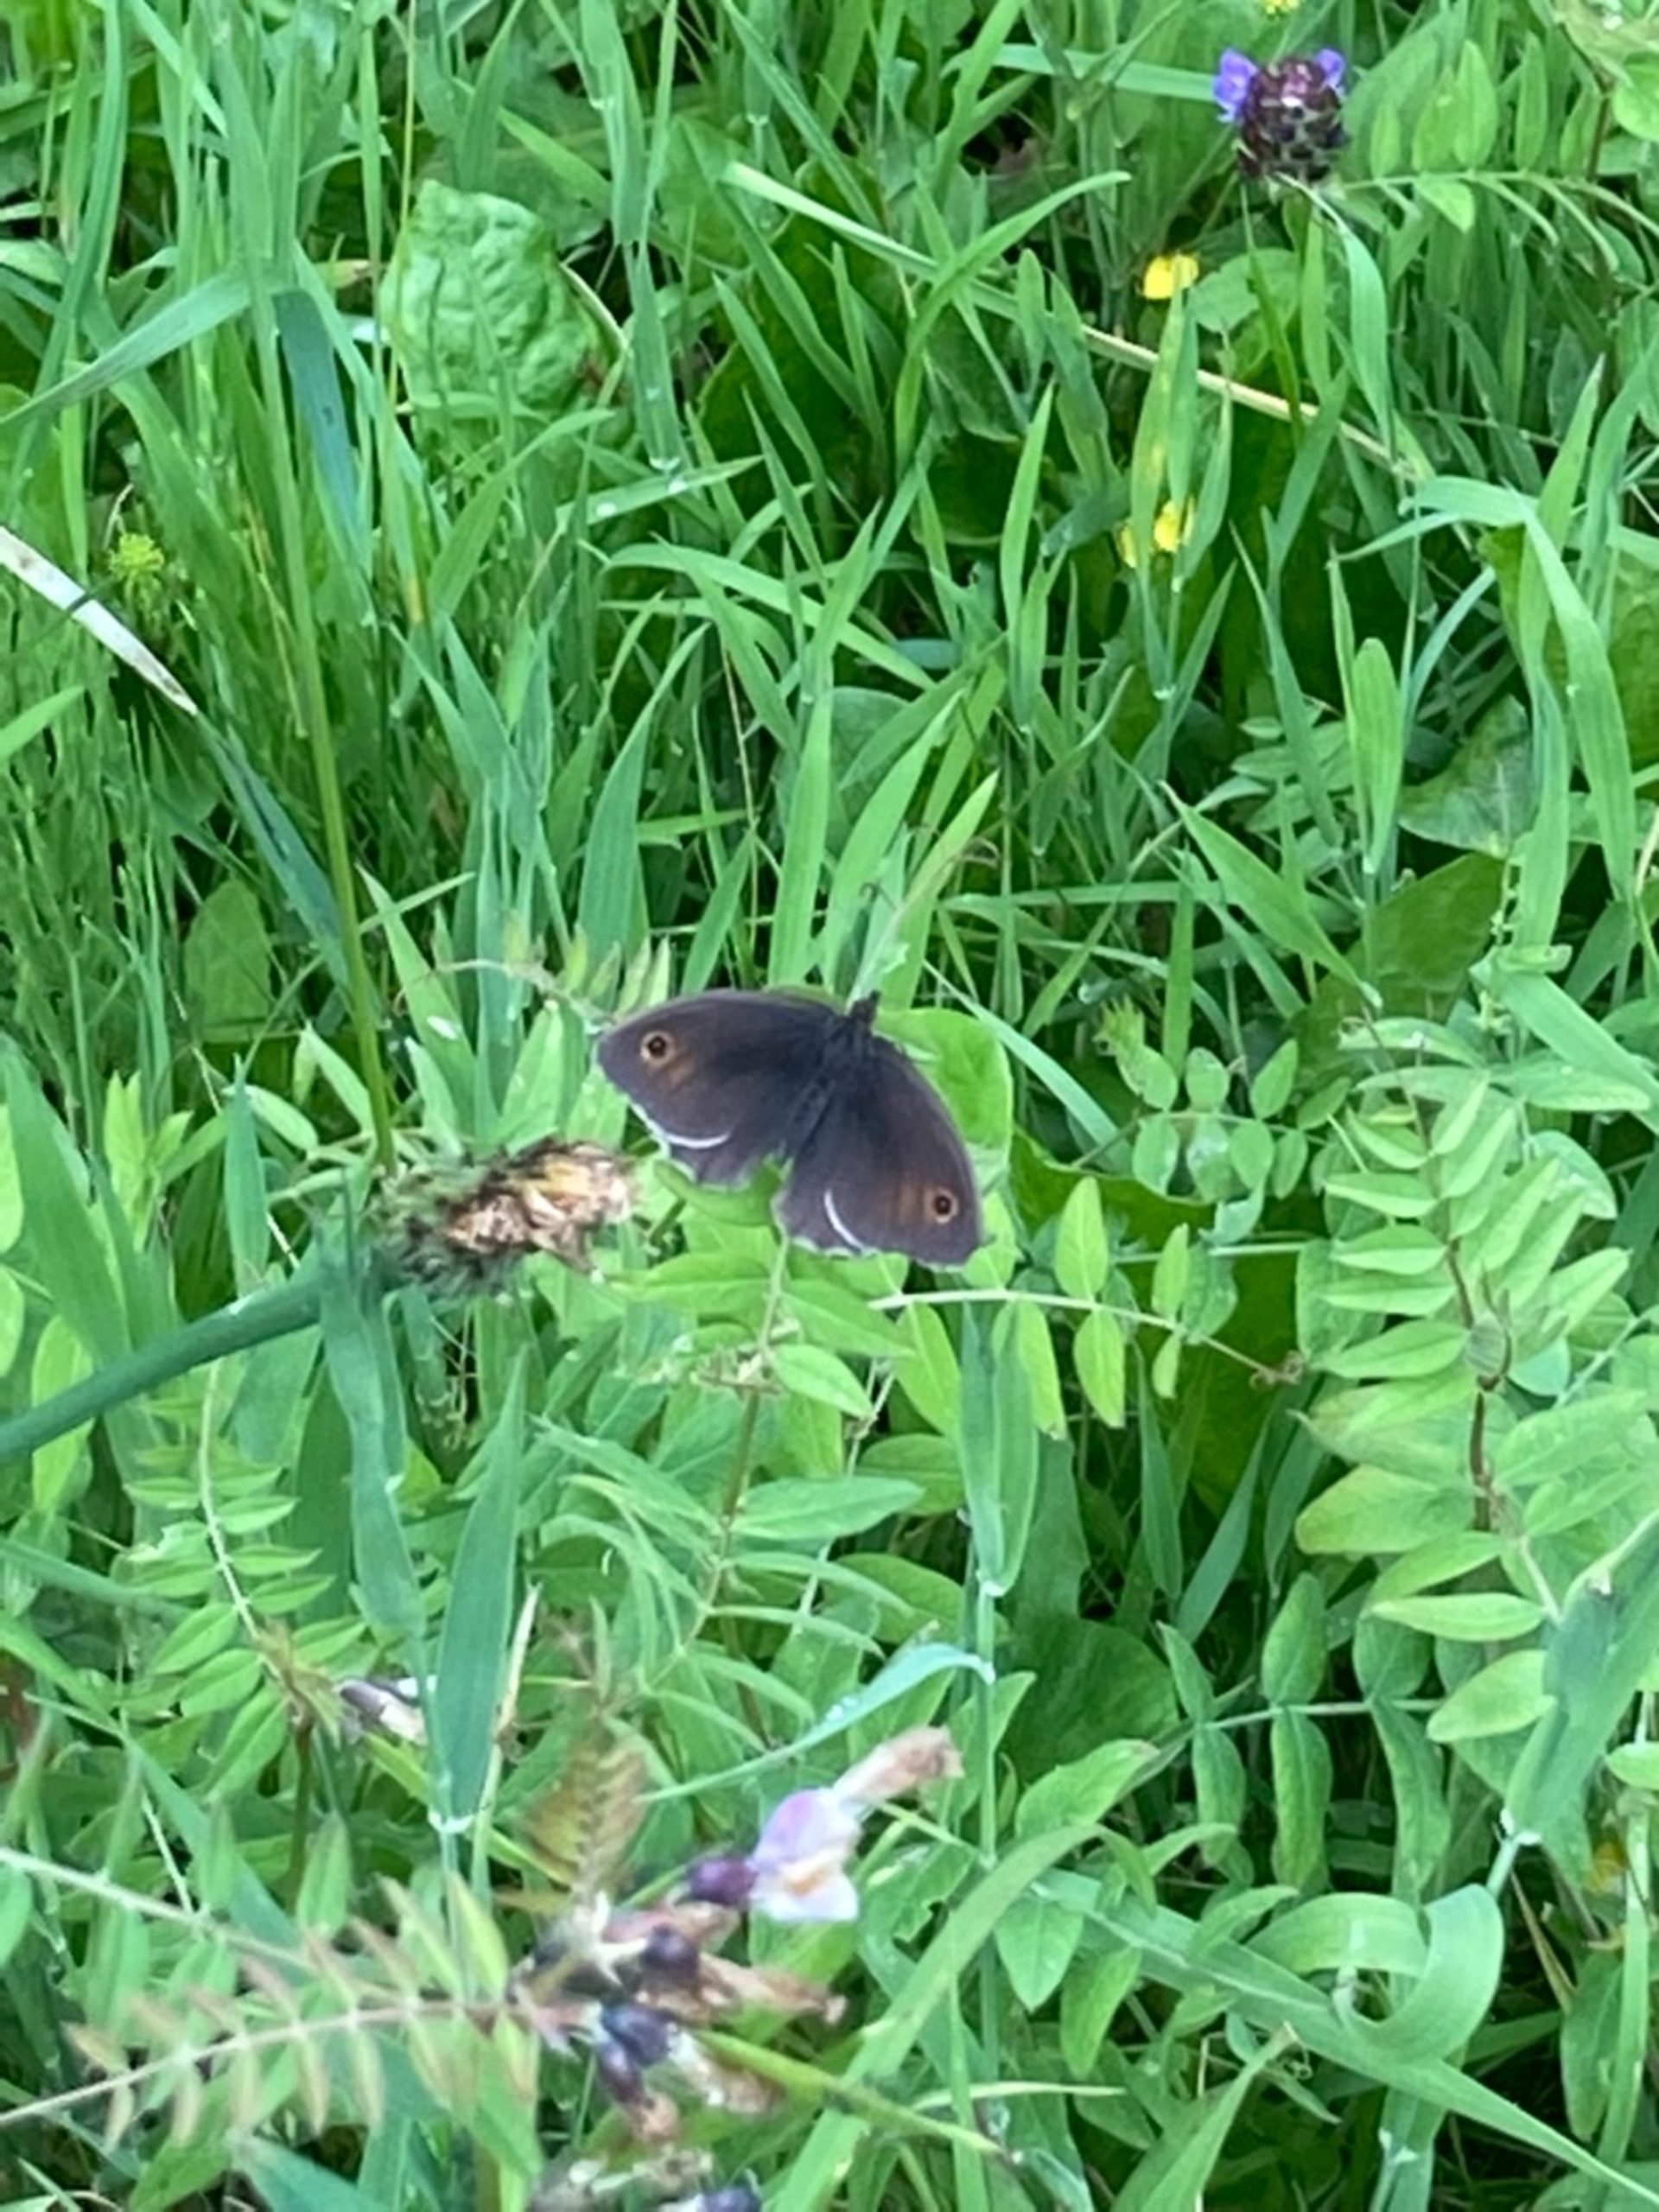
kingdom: Animalia
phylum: Arthropoda
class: Insecta
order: Lepidoptera
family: Nymphalidae
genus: Maniola
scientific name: Maniola jurtina
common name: Græsrandøje
